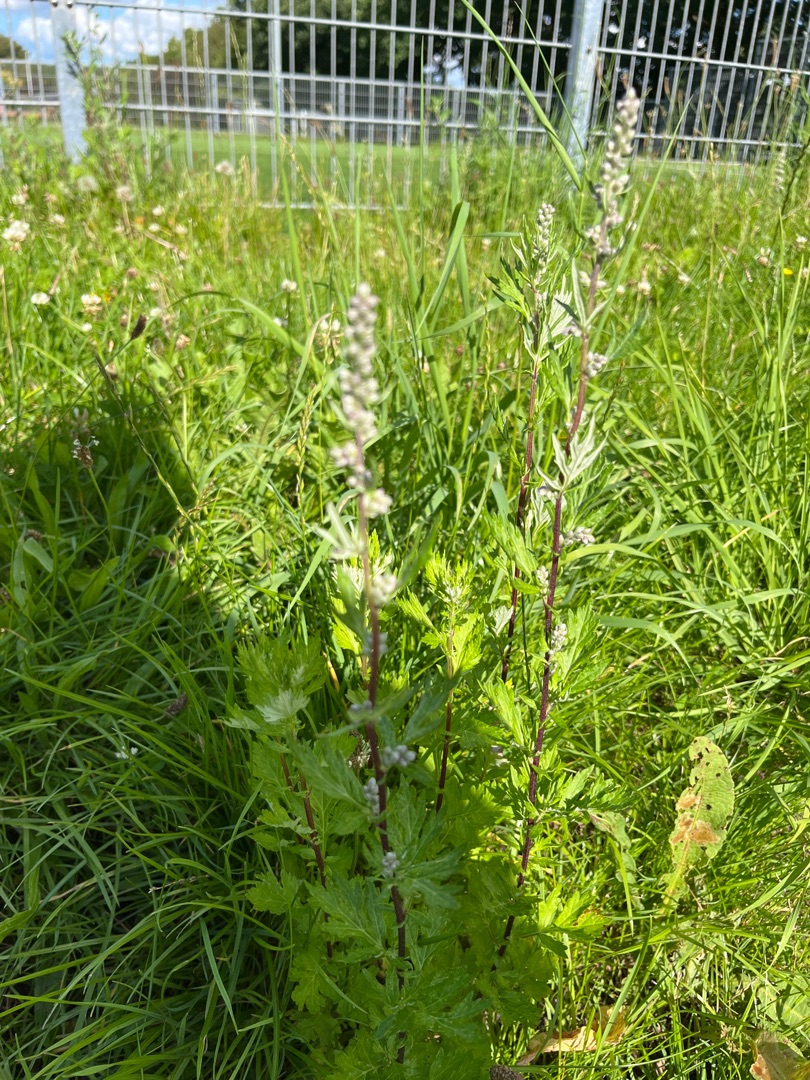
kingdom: Plantae
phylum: Tracheophyta
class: Magnoliopsida
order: Asterales
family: Asteraceae
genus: Artemisia
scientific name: Artemisia vulgaris
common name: Grå-bynke
